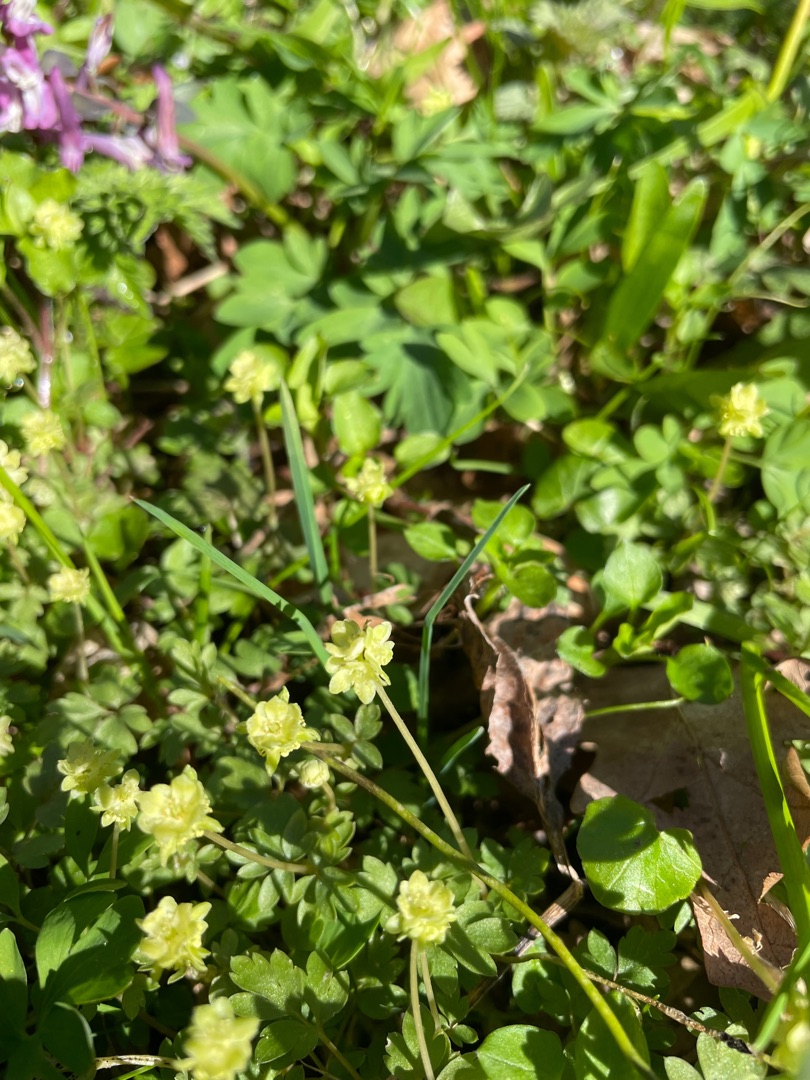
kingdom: Plantae
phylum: Tracheophyta
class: Magnoliopsida
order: Dipsacales
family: Viburnaceae
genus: Adoxa
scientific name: Adoxa moschatellina
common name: Desmerurt
